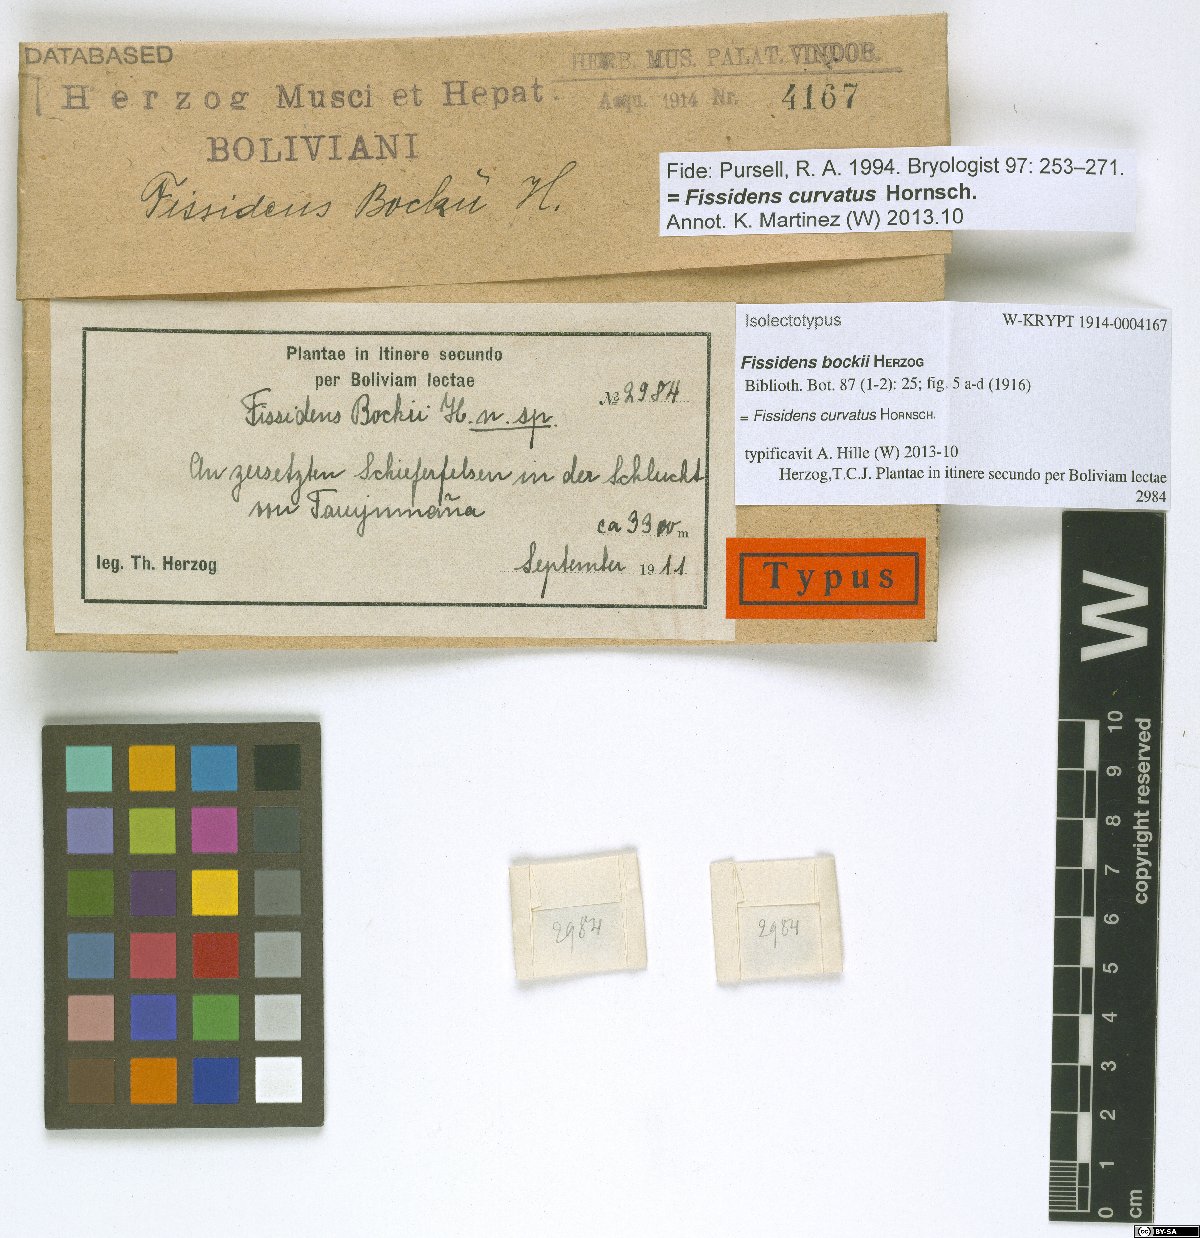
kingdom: Plantae
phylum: Bryophyta
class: Bryopsida
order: Dicranales
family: Fissidentaceae
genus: Fissidens
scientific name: Fissidens curvatus
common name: Milo's fissidens moss
